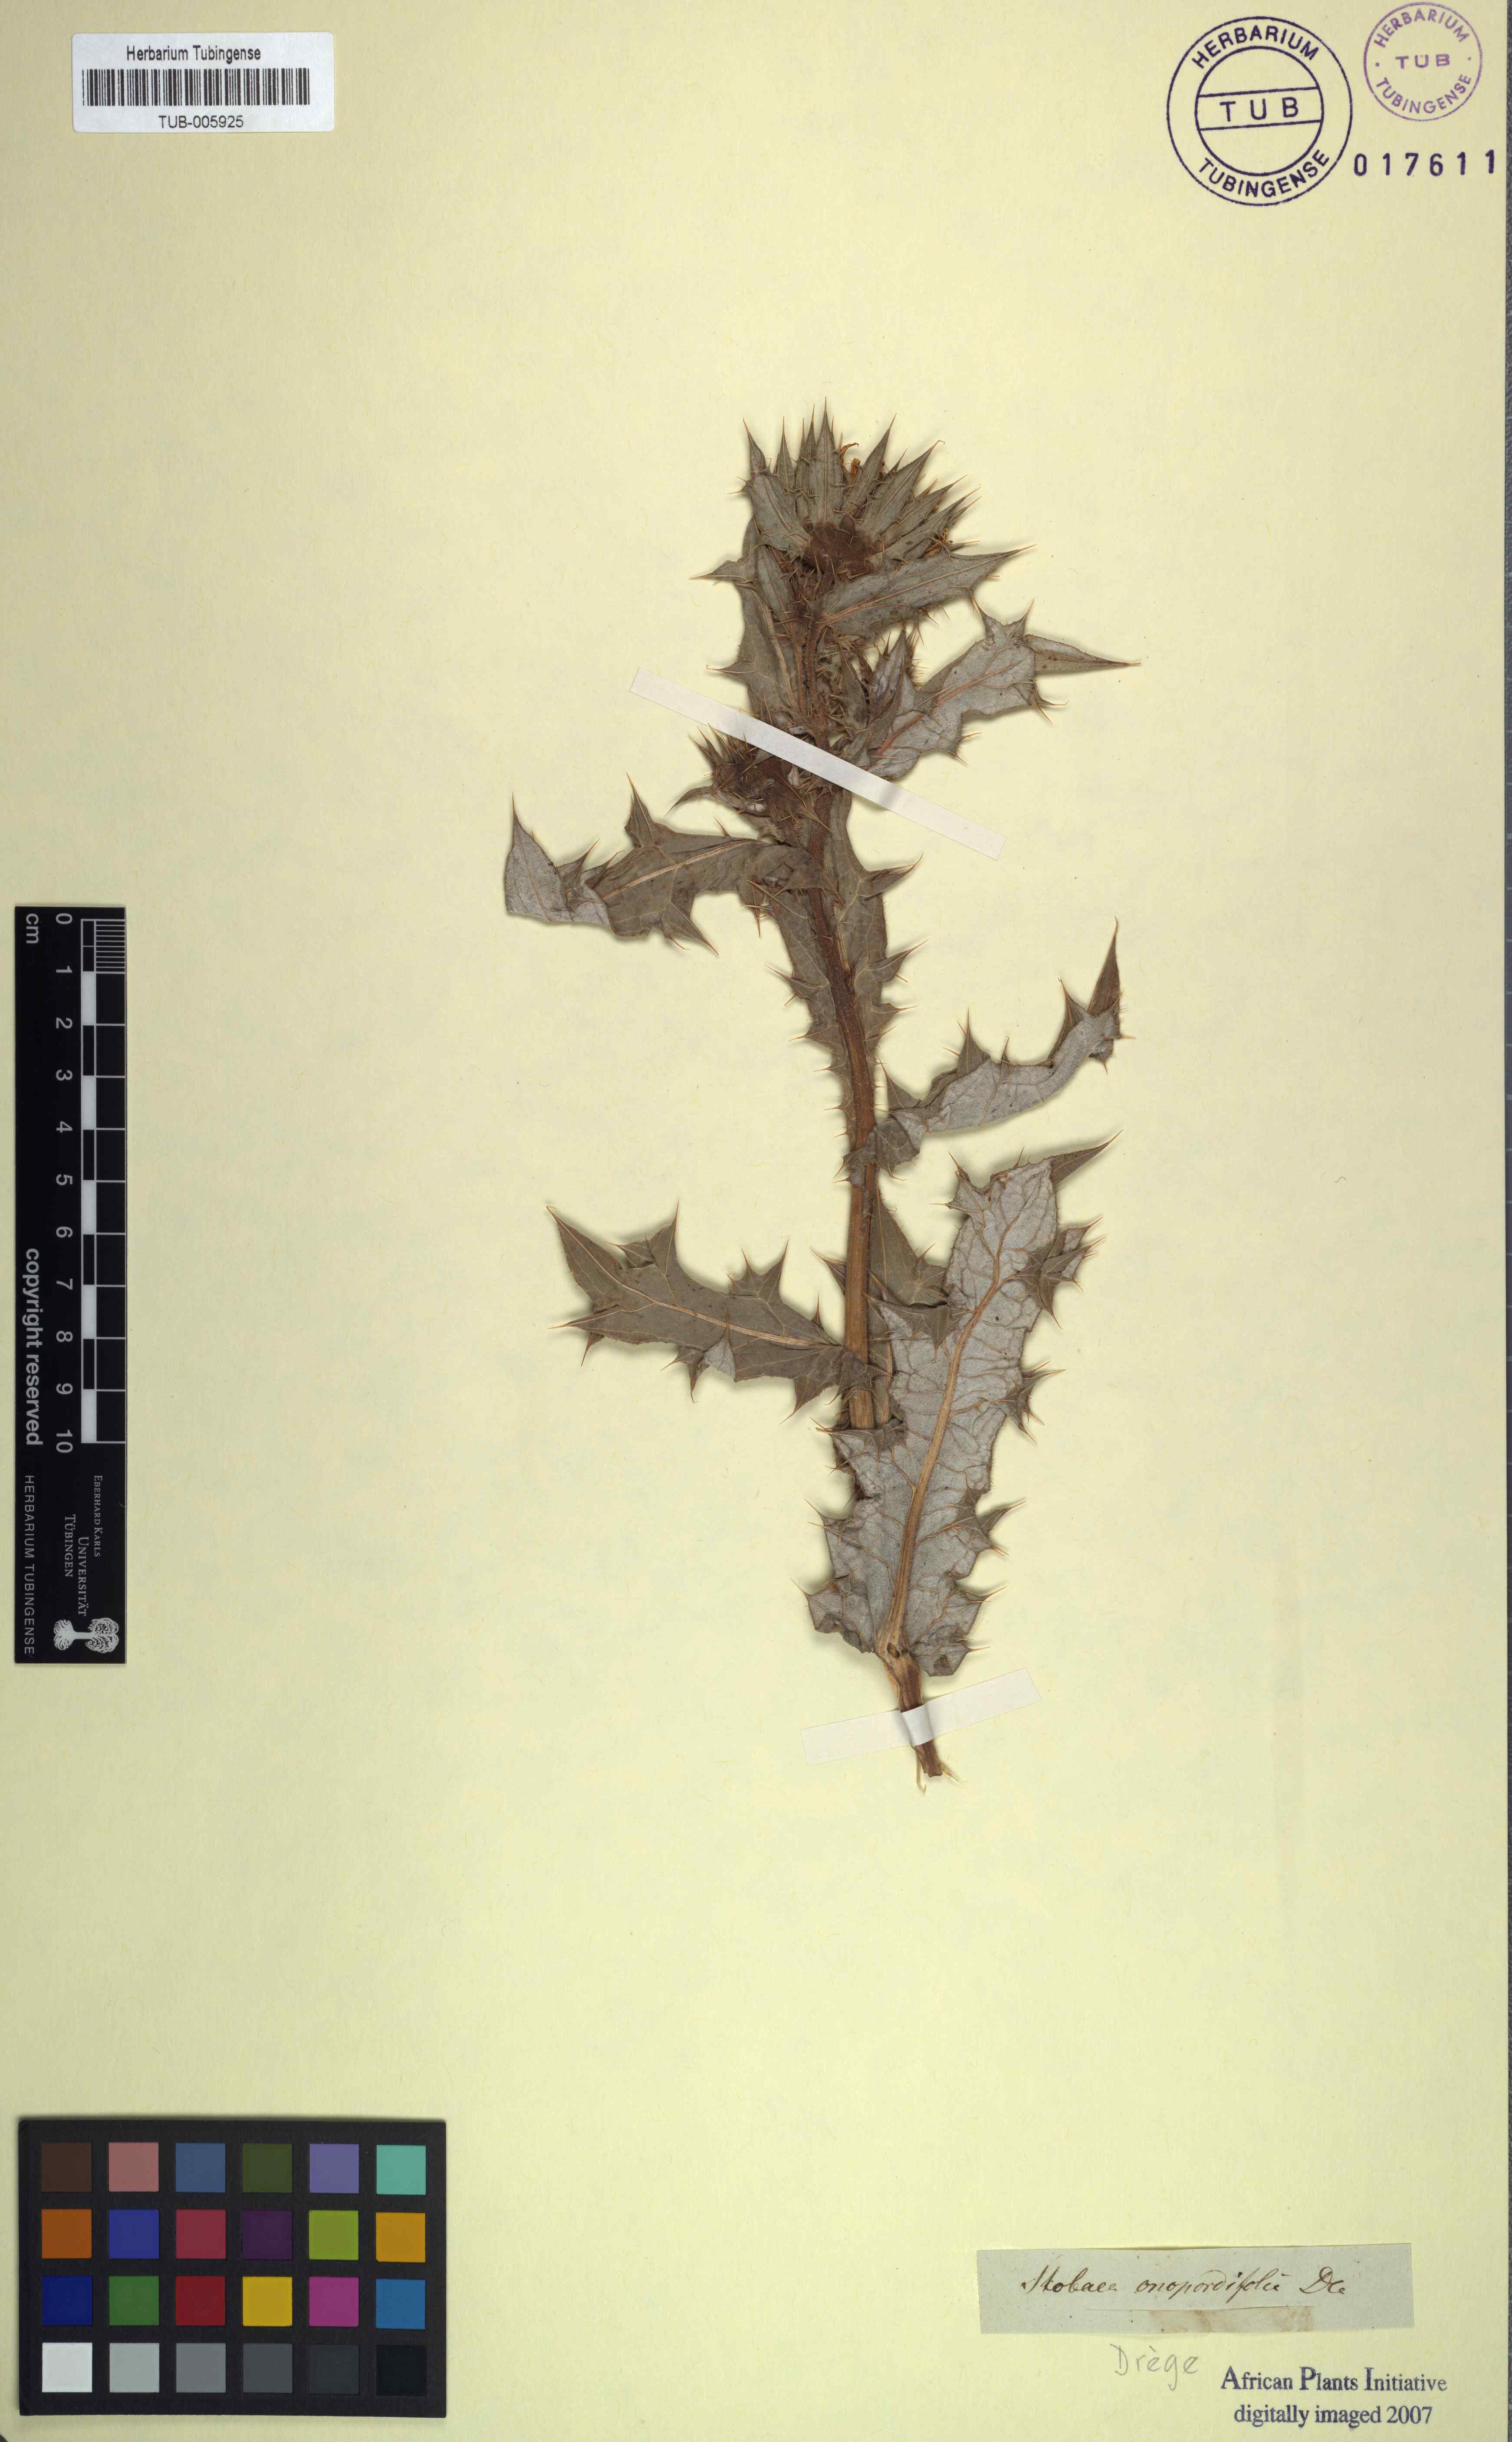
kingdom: Plantae
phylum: Tracheophyta
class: Magnoliopsida
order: Asterales
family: Asteraceae
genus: Berkheya
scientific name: Berkheya onopordifolia
